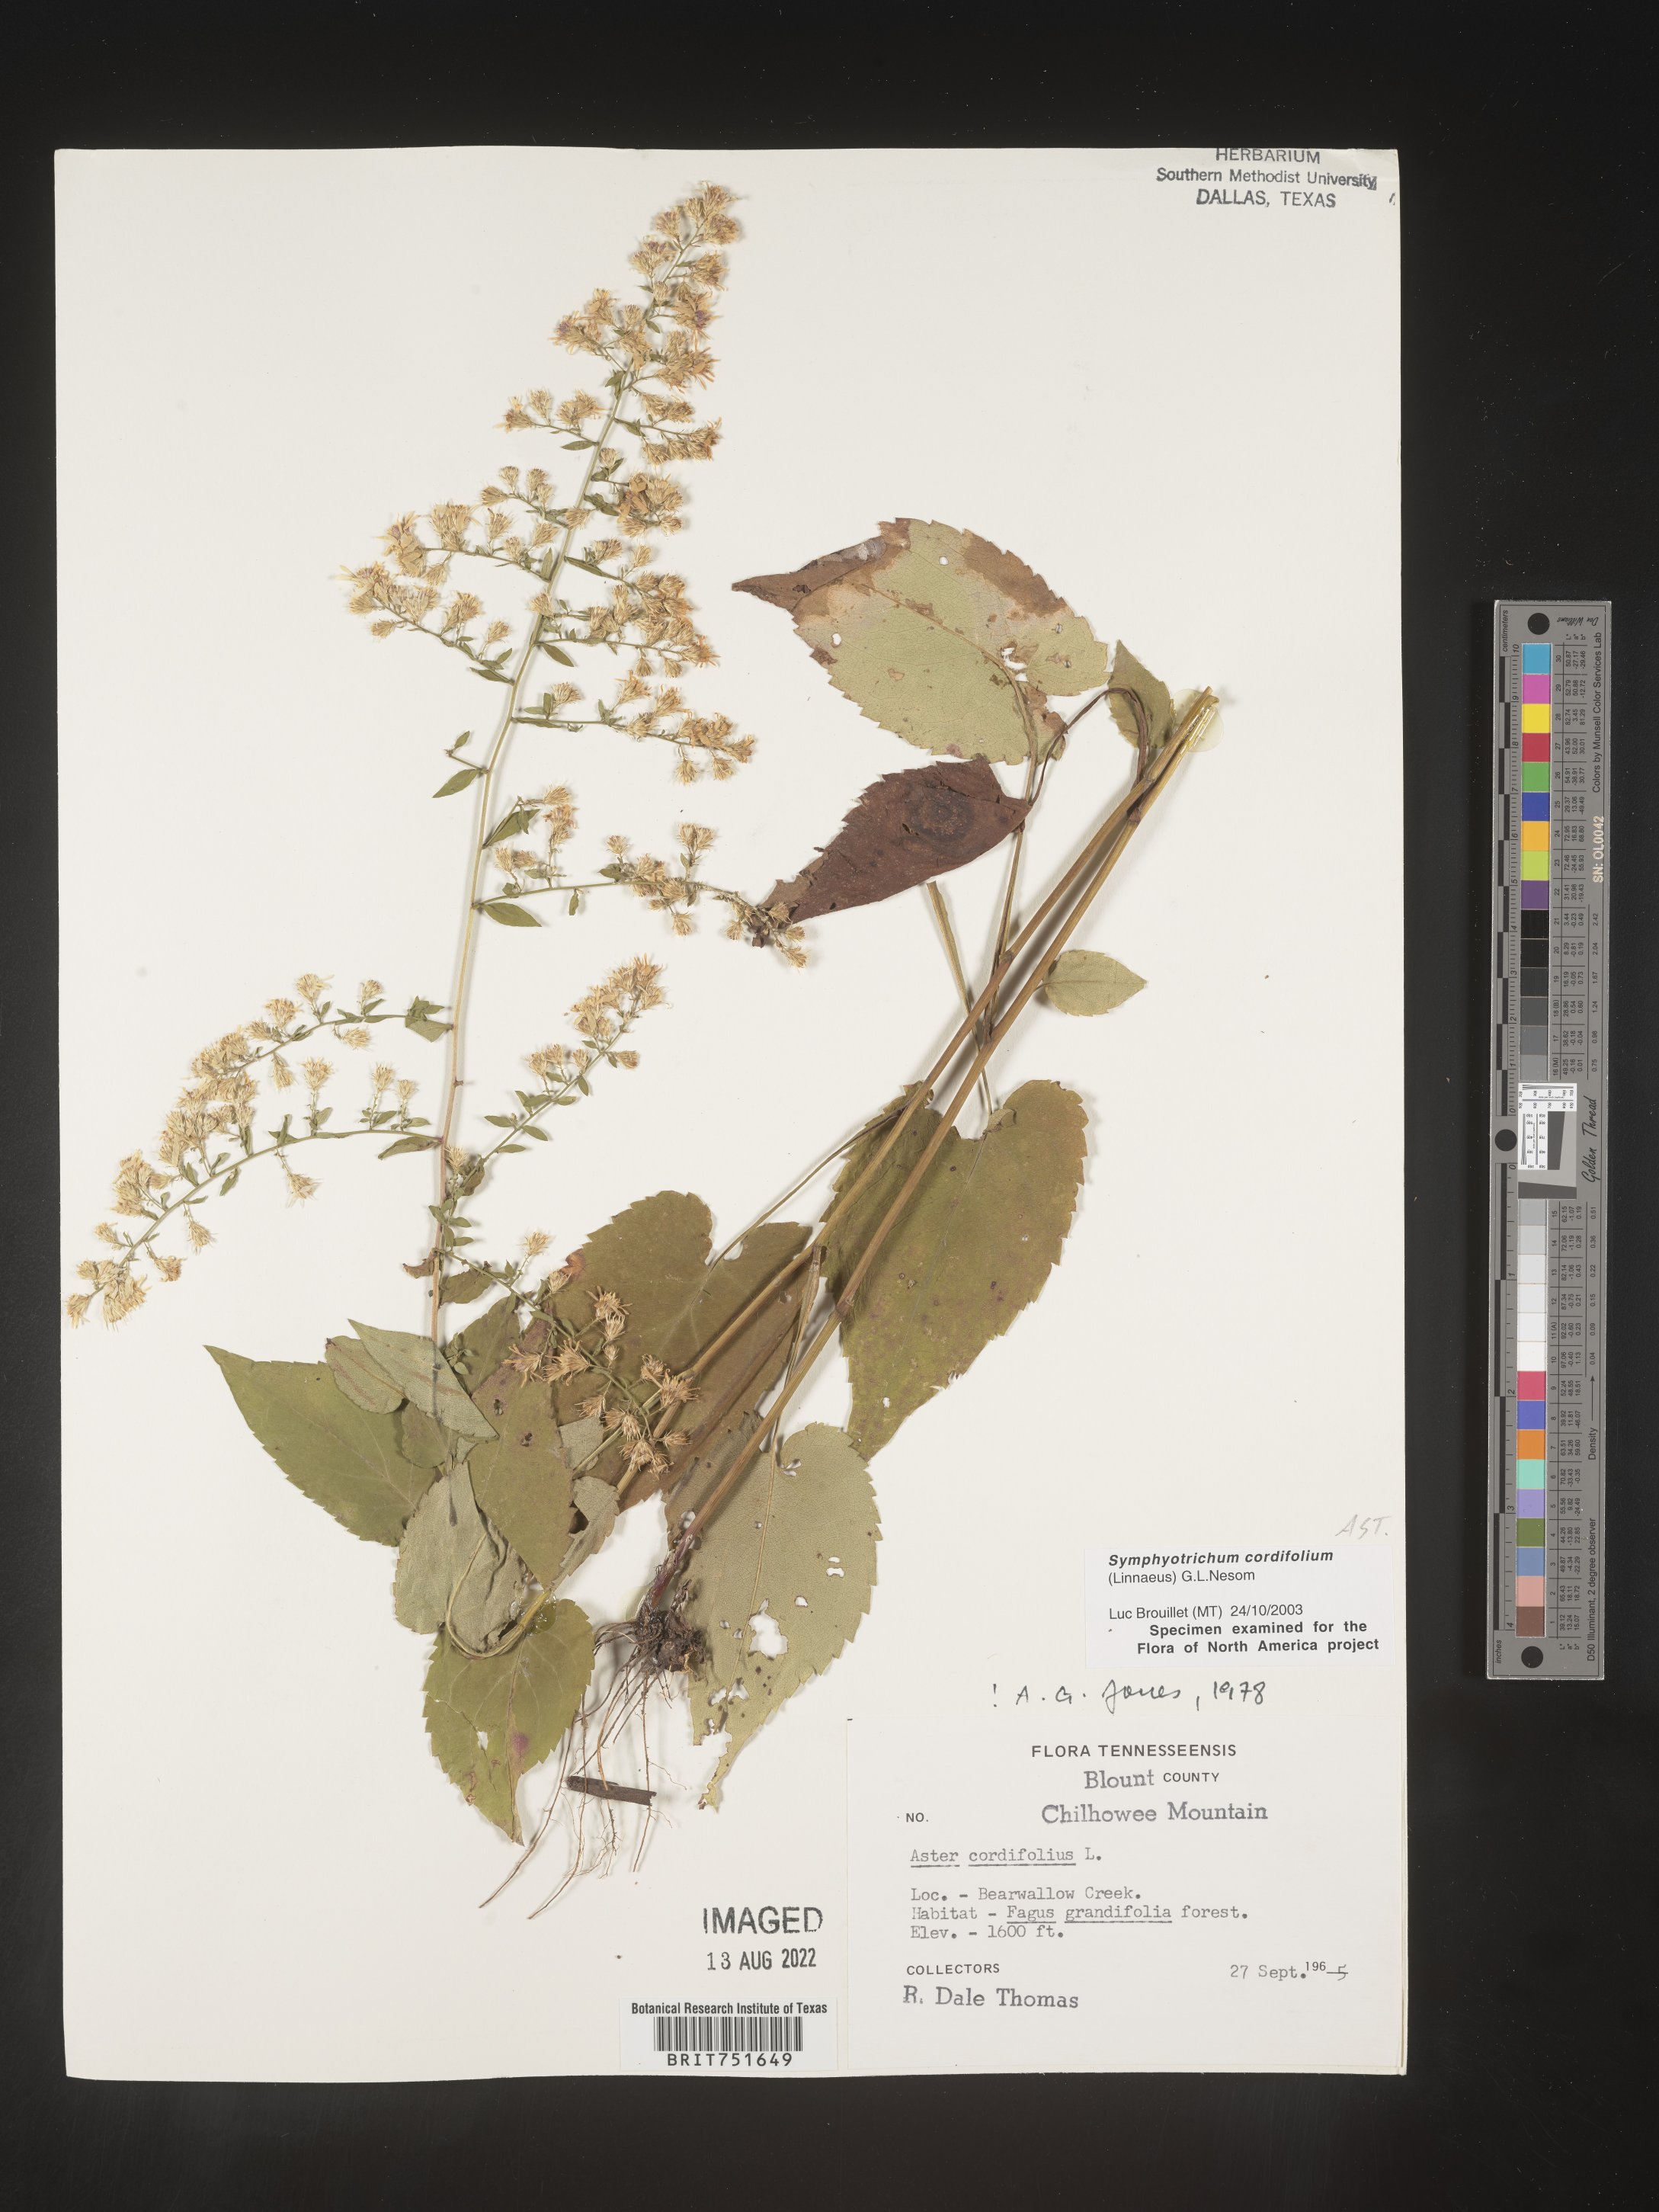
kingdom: Plantae
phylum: Tracheophyta
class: Magnoliopsida
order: Asterales
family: Asteraceae
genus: Symphyotrichum
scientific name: Symphyotrichum cordifolium
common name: Beeweed
